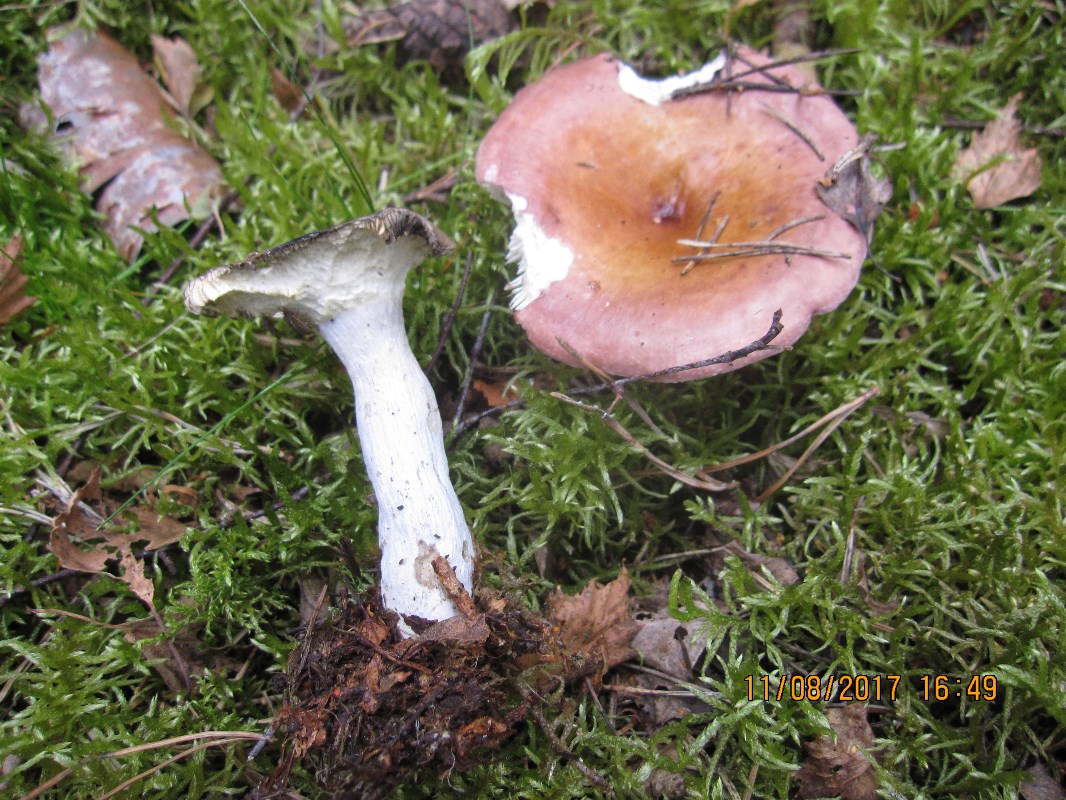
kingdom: Fungi
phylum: Basidiomycota
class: Agaricomycetes
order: Russulales
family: Russulaceae
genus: Russula
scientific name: Russula vinosa
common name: vinrød skørhat
